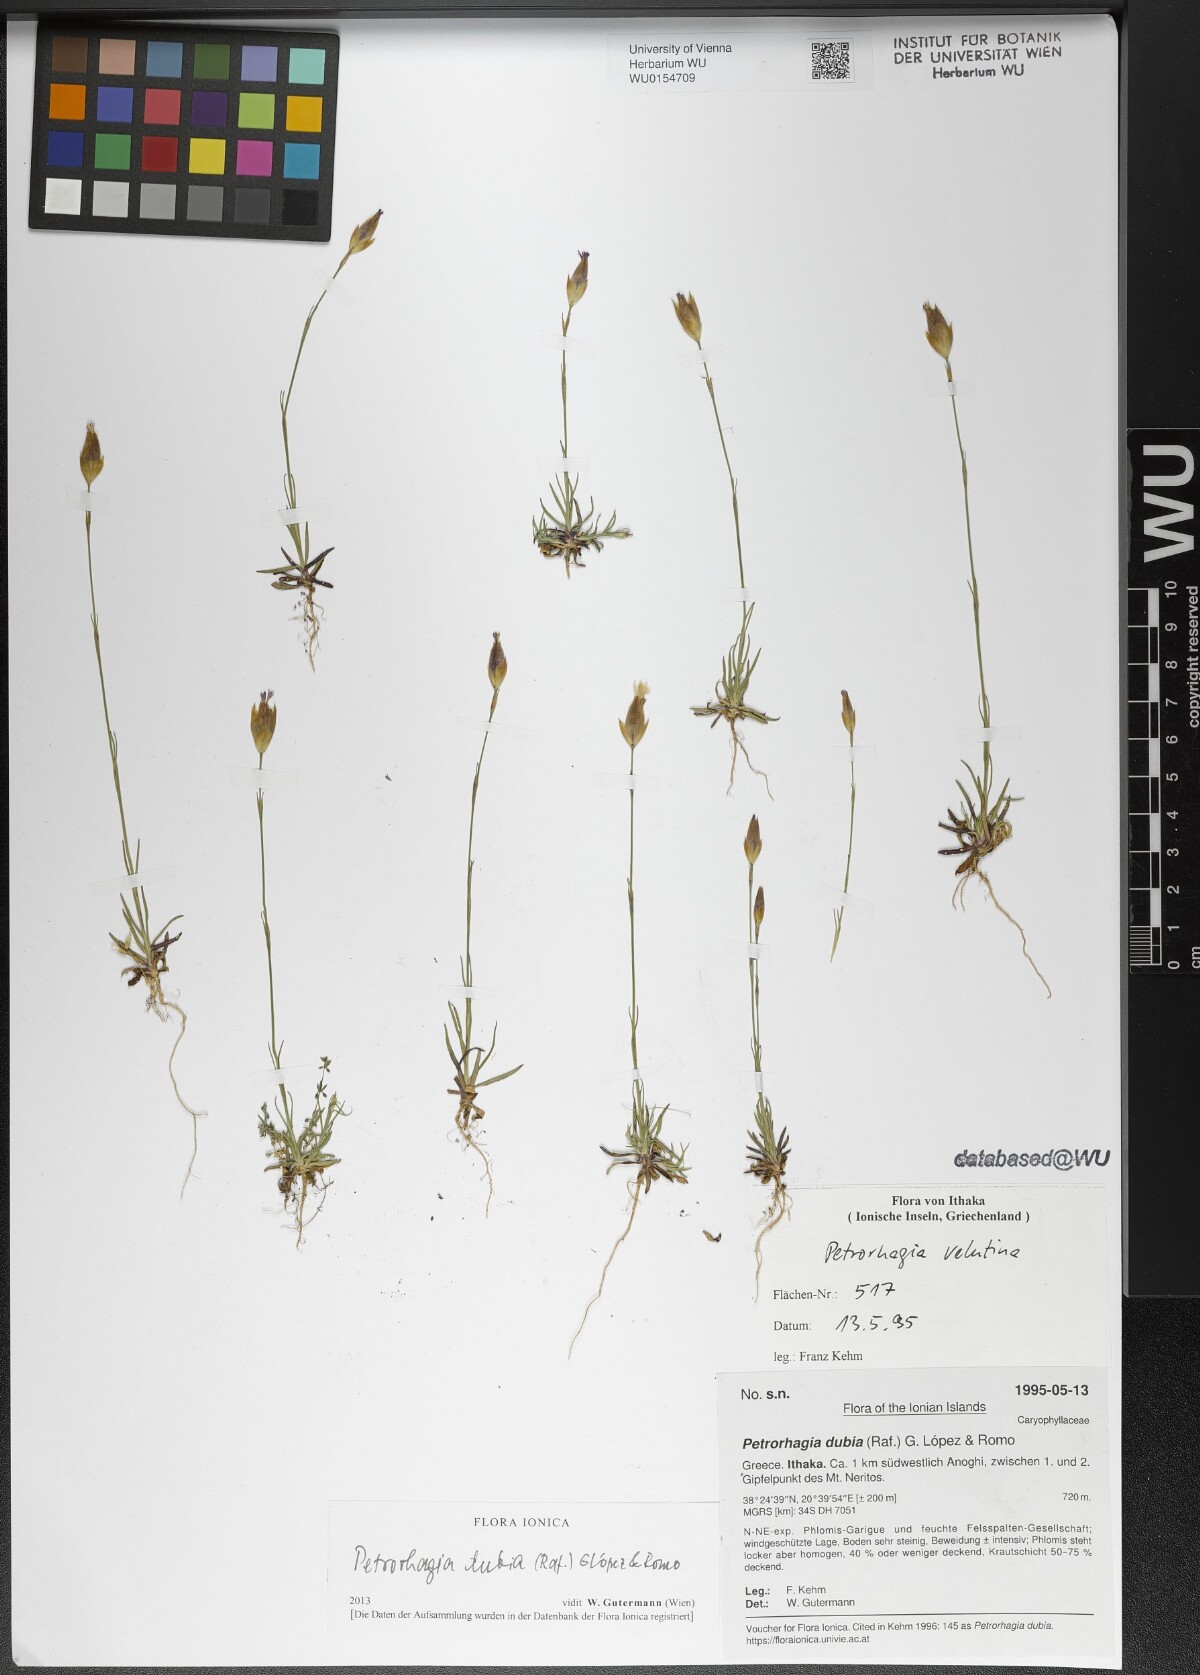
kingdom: Plantae
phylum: Tracheophyta
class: Magnoliopsida
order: Caryophyllales
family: Caryophyllaceae
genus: Petrorhagia
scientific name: Petrorhagia dubia
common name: Hairypink
